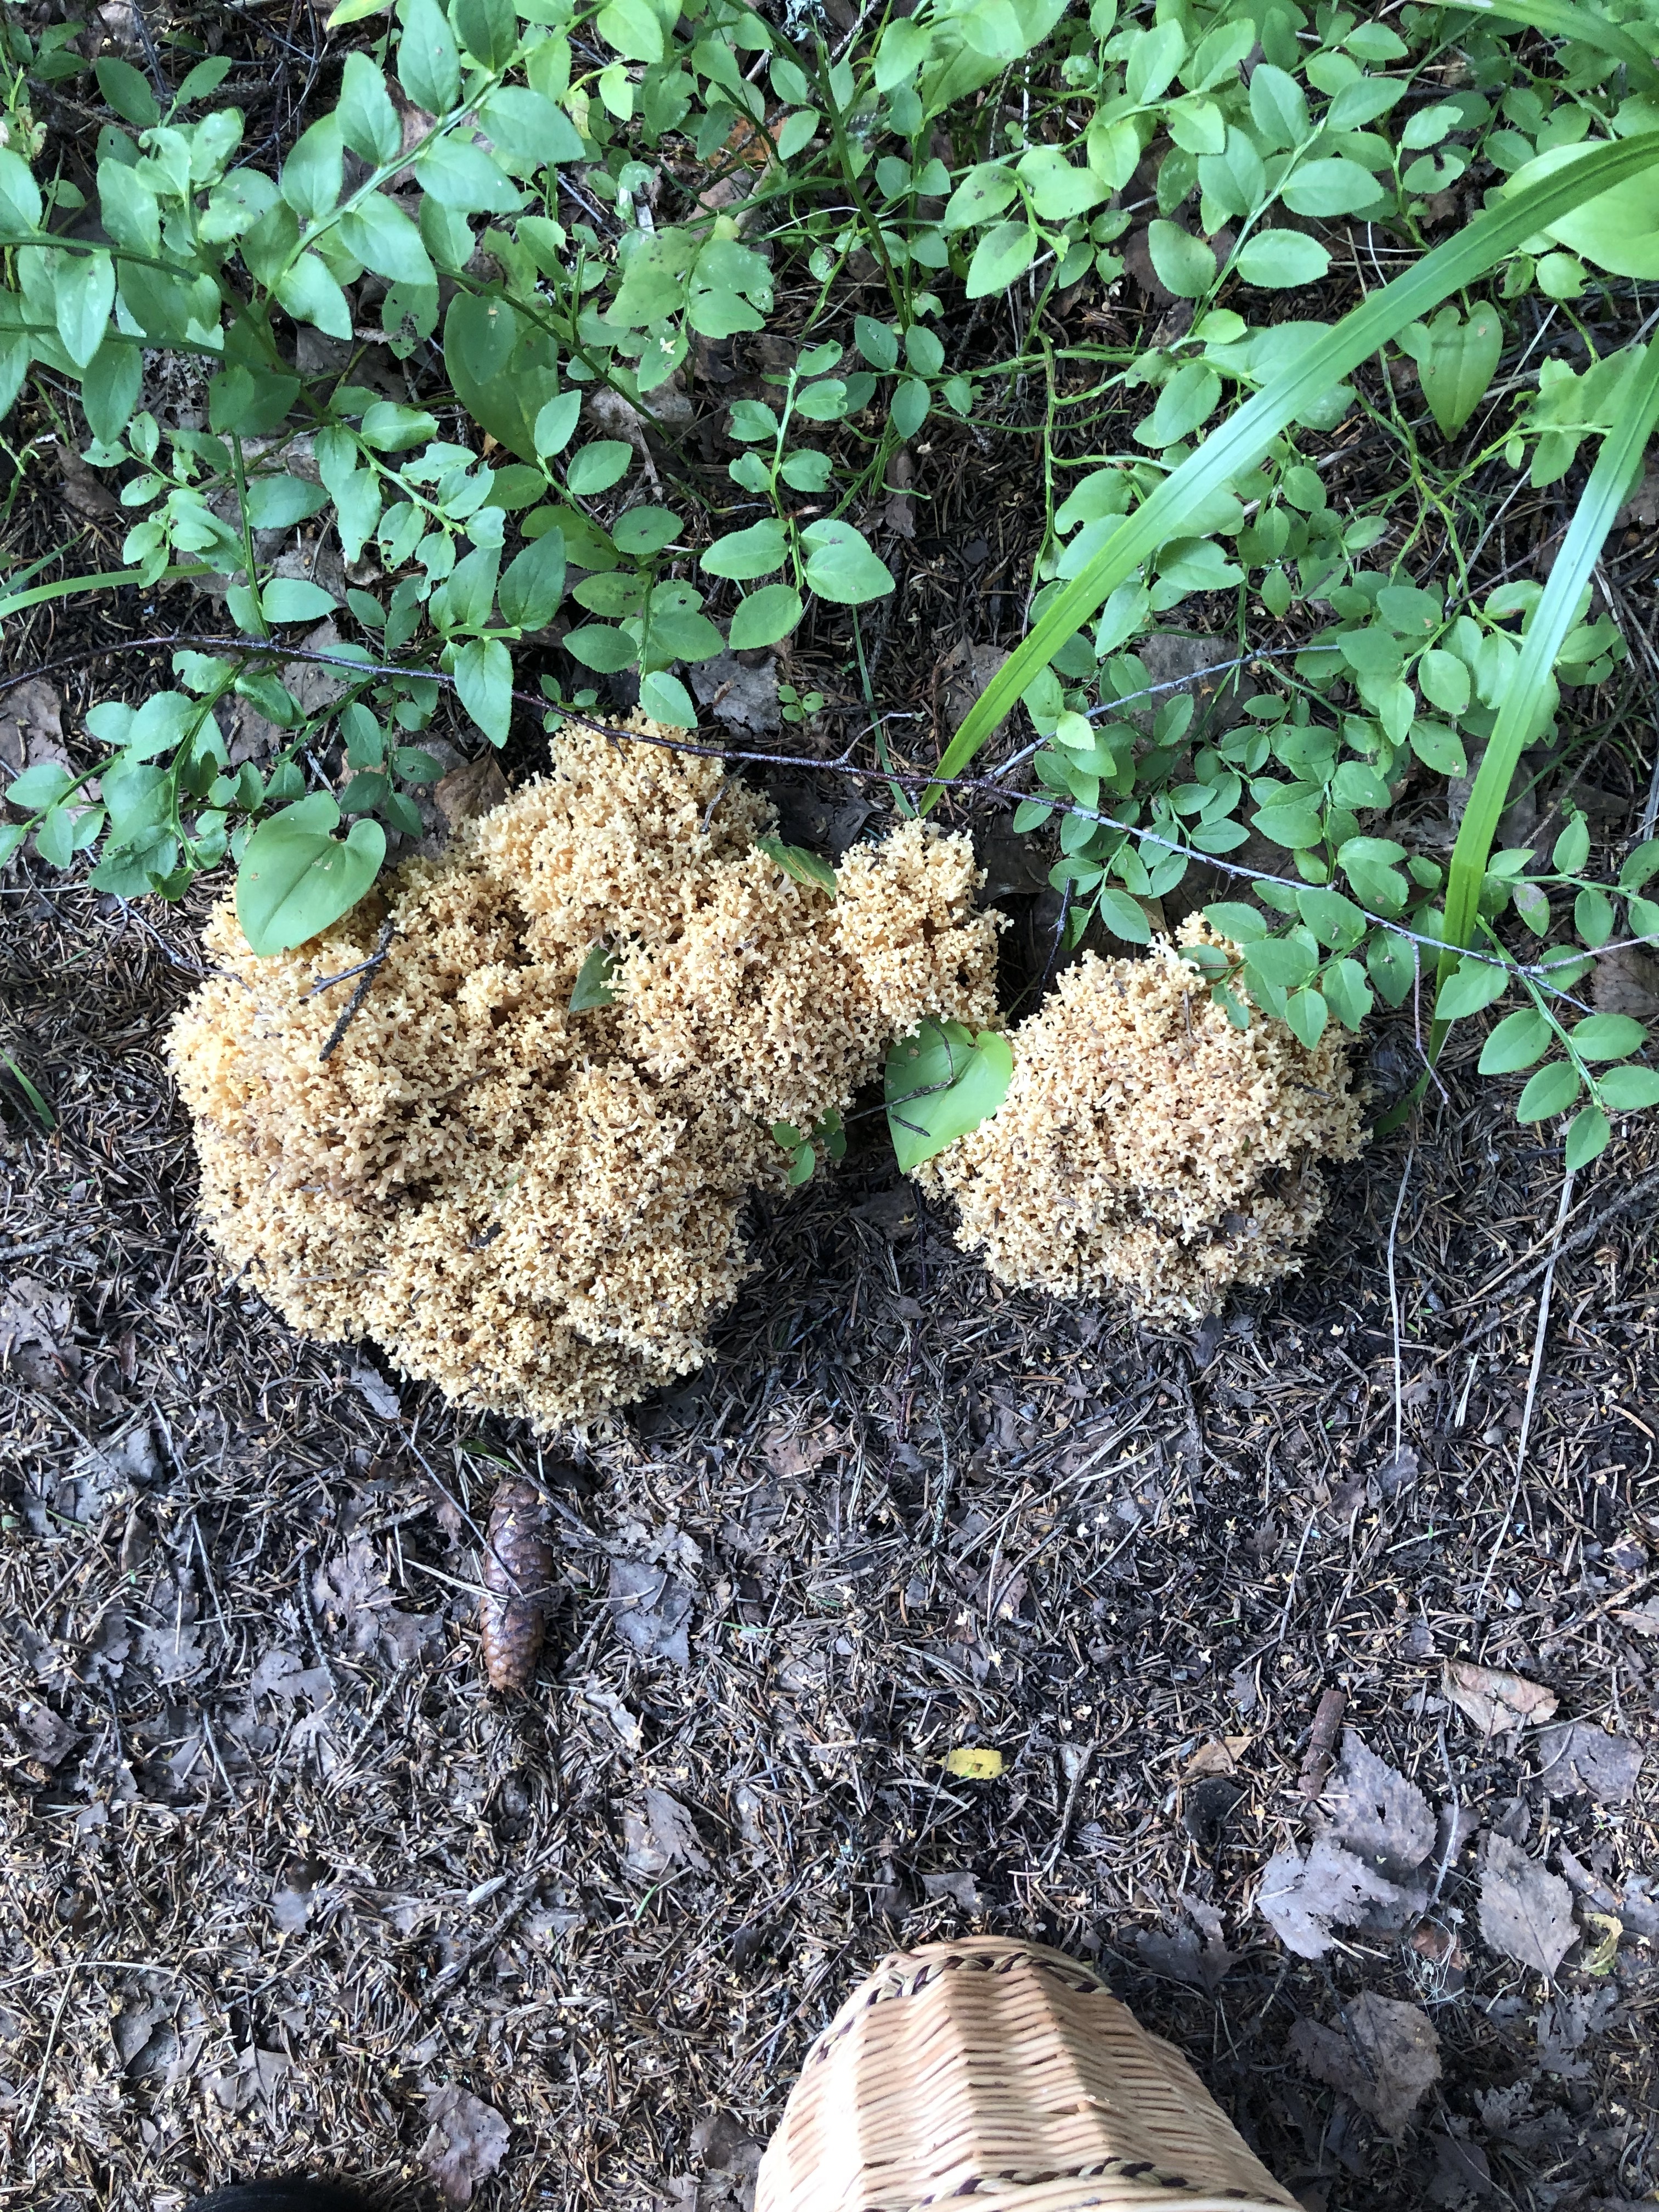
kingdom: Fungi
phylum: Basidiomycota
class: Agaricomycetes
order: Russulales
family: Hericiaceae
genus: Hericium
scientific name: Hericium coralloides
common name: Coral tooth
